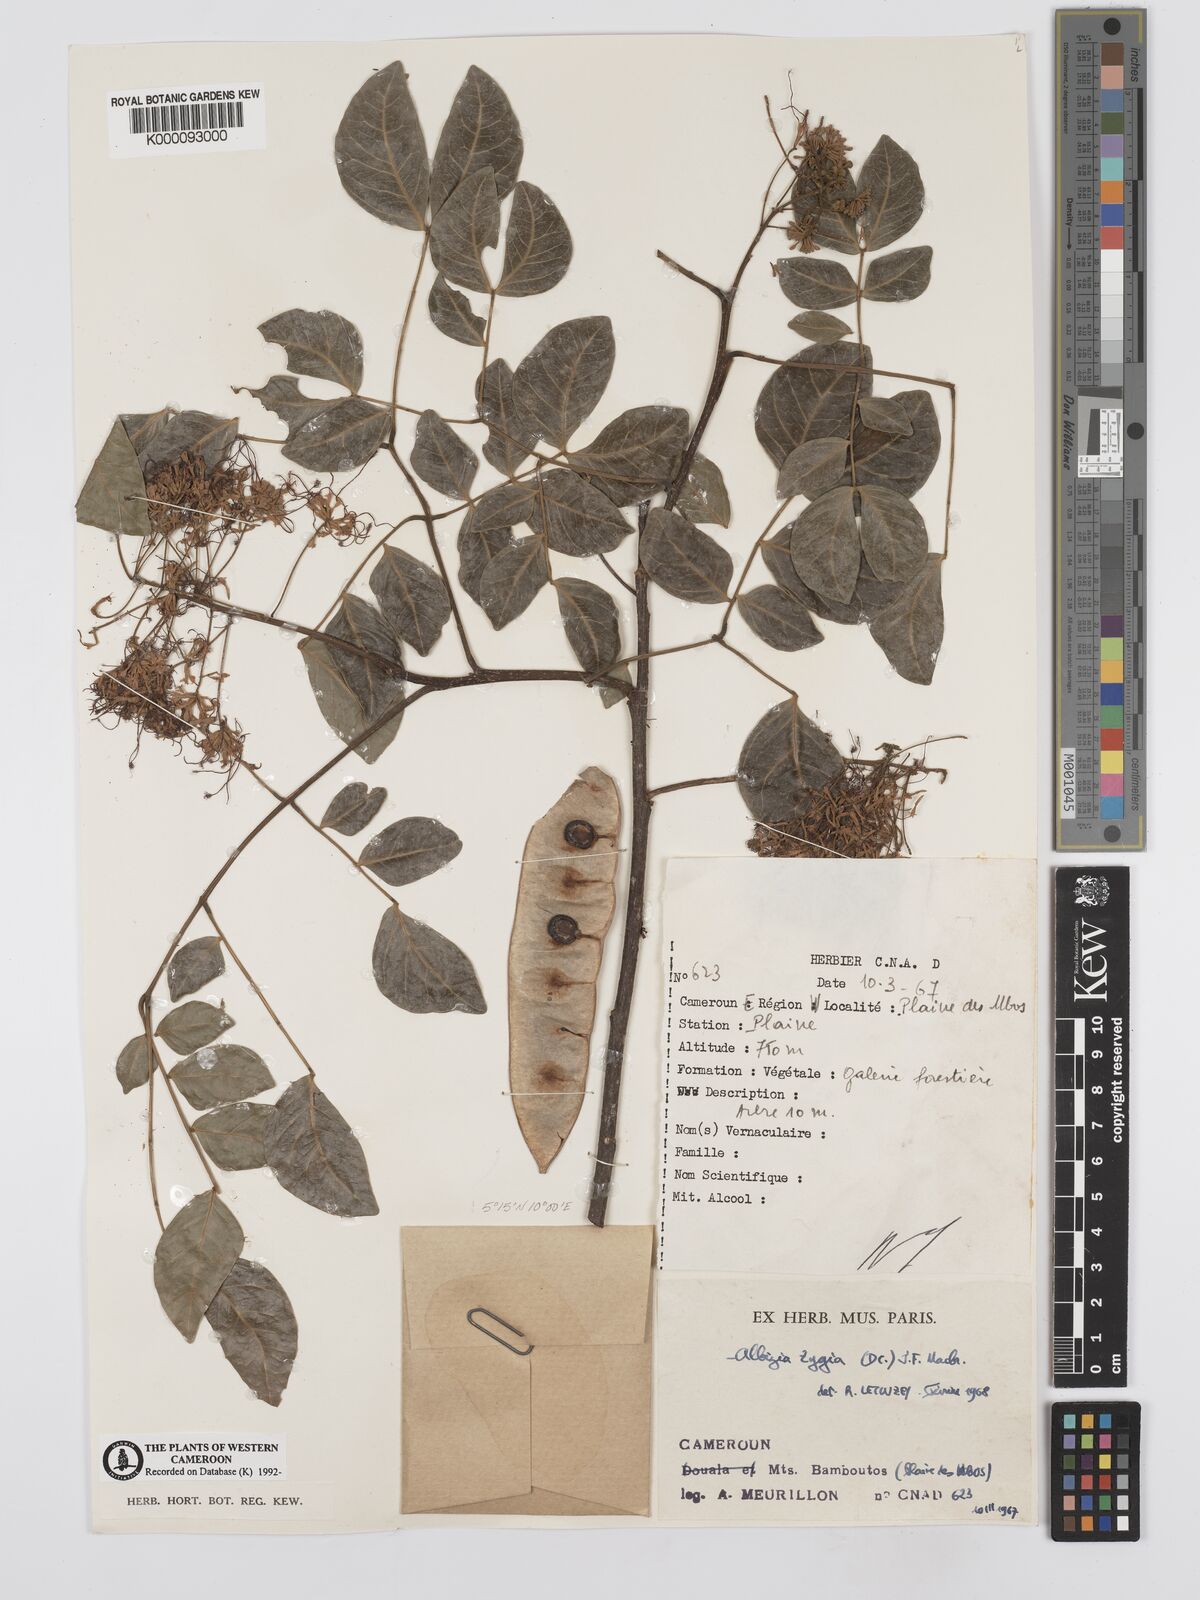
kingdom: Plantae
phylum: Tracheophyta
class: Magnoliopsida
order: Fabales
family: Fabaceae
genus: Albizia
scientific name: Albizia zygia
